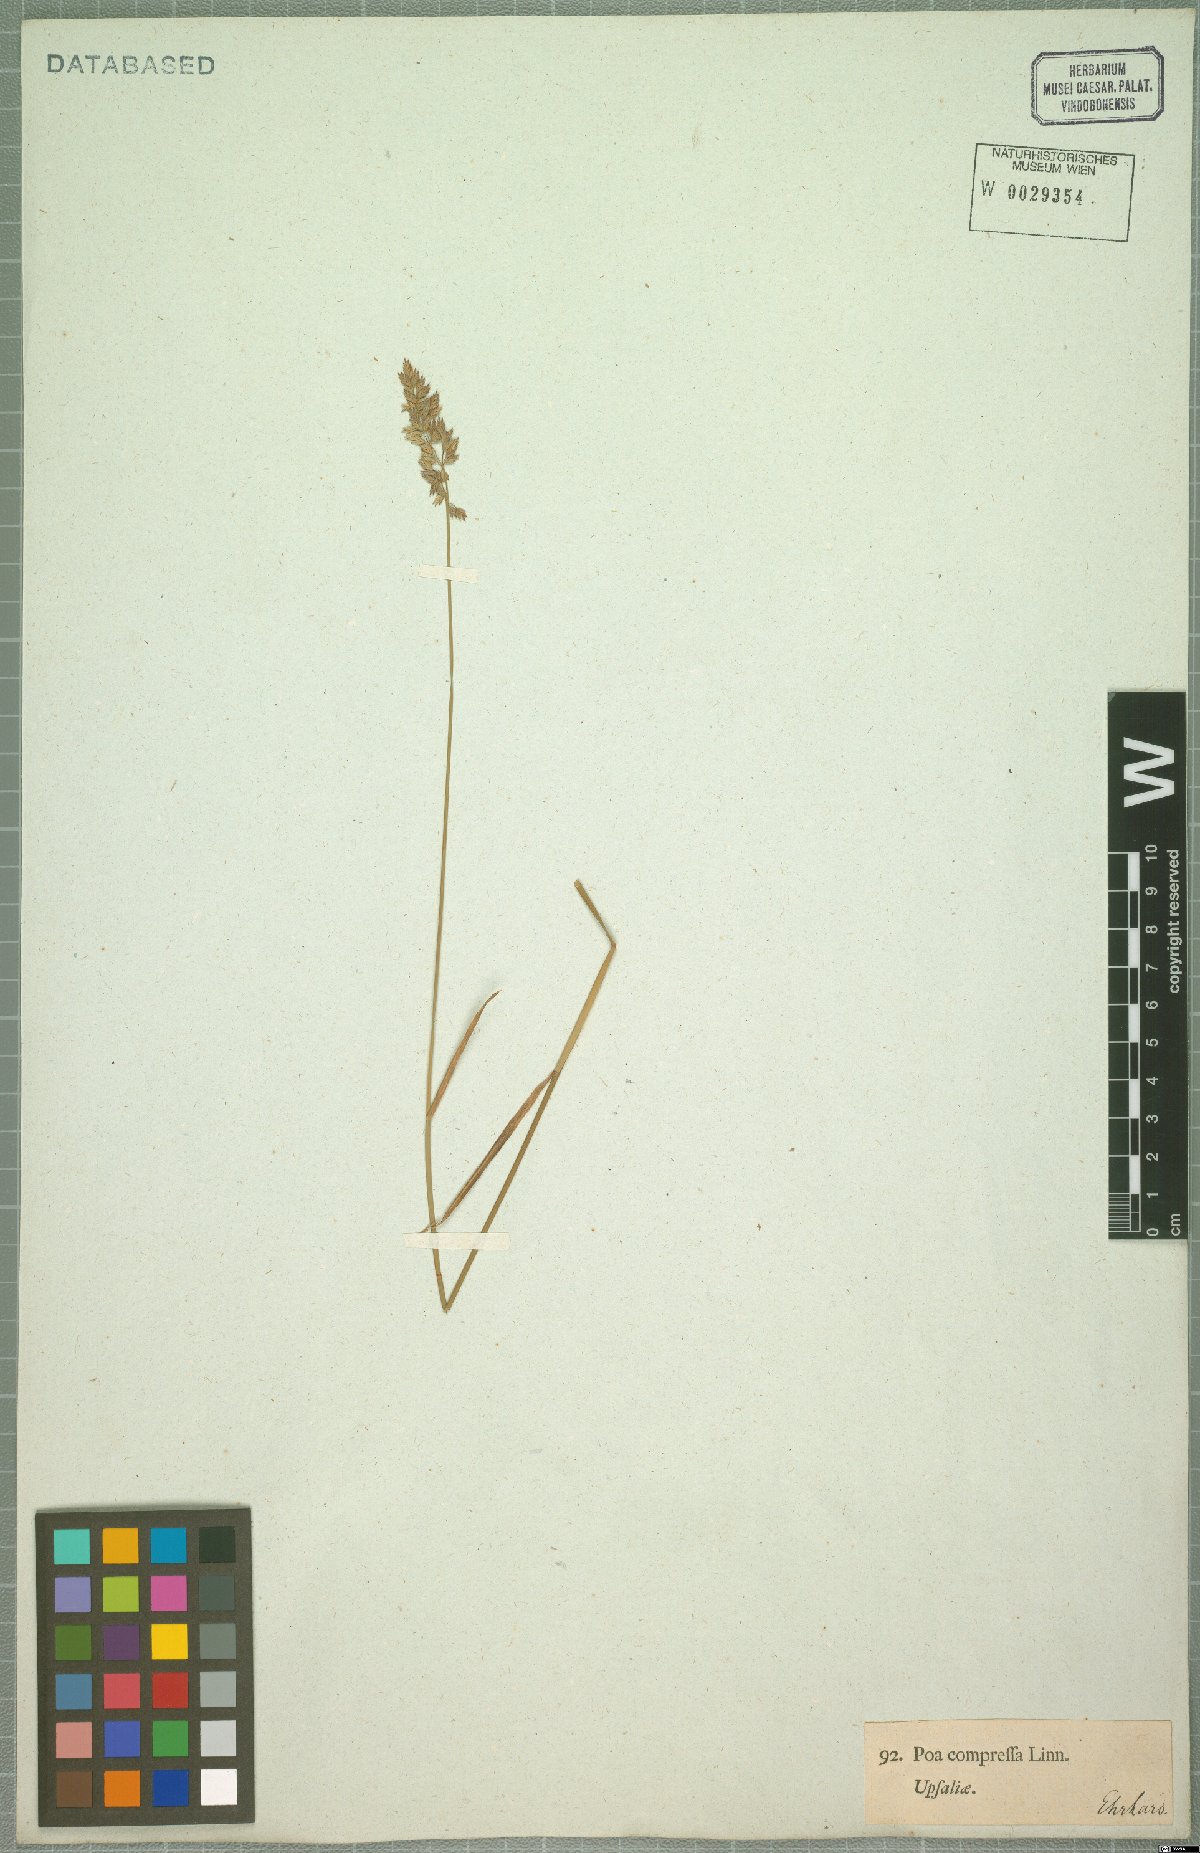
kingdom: Plantae
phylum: Tracheophyta
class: Liliopsida
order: Poales
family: Poaceae
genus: Poa
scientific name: Poa compressa
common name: Canada bluegrass
